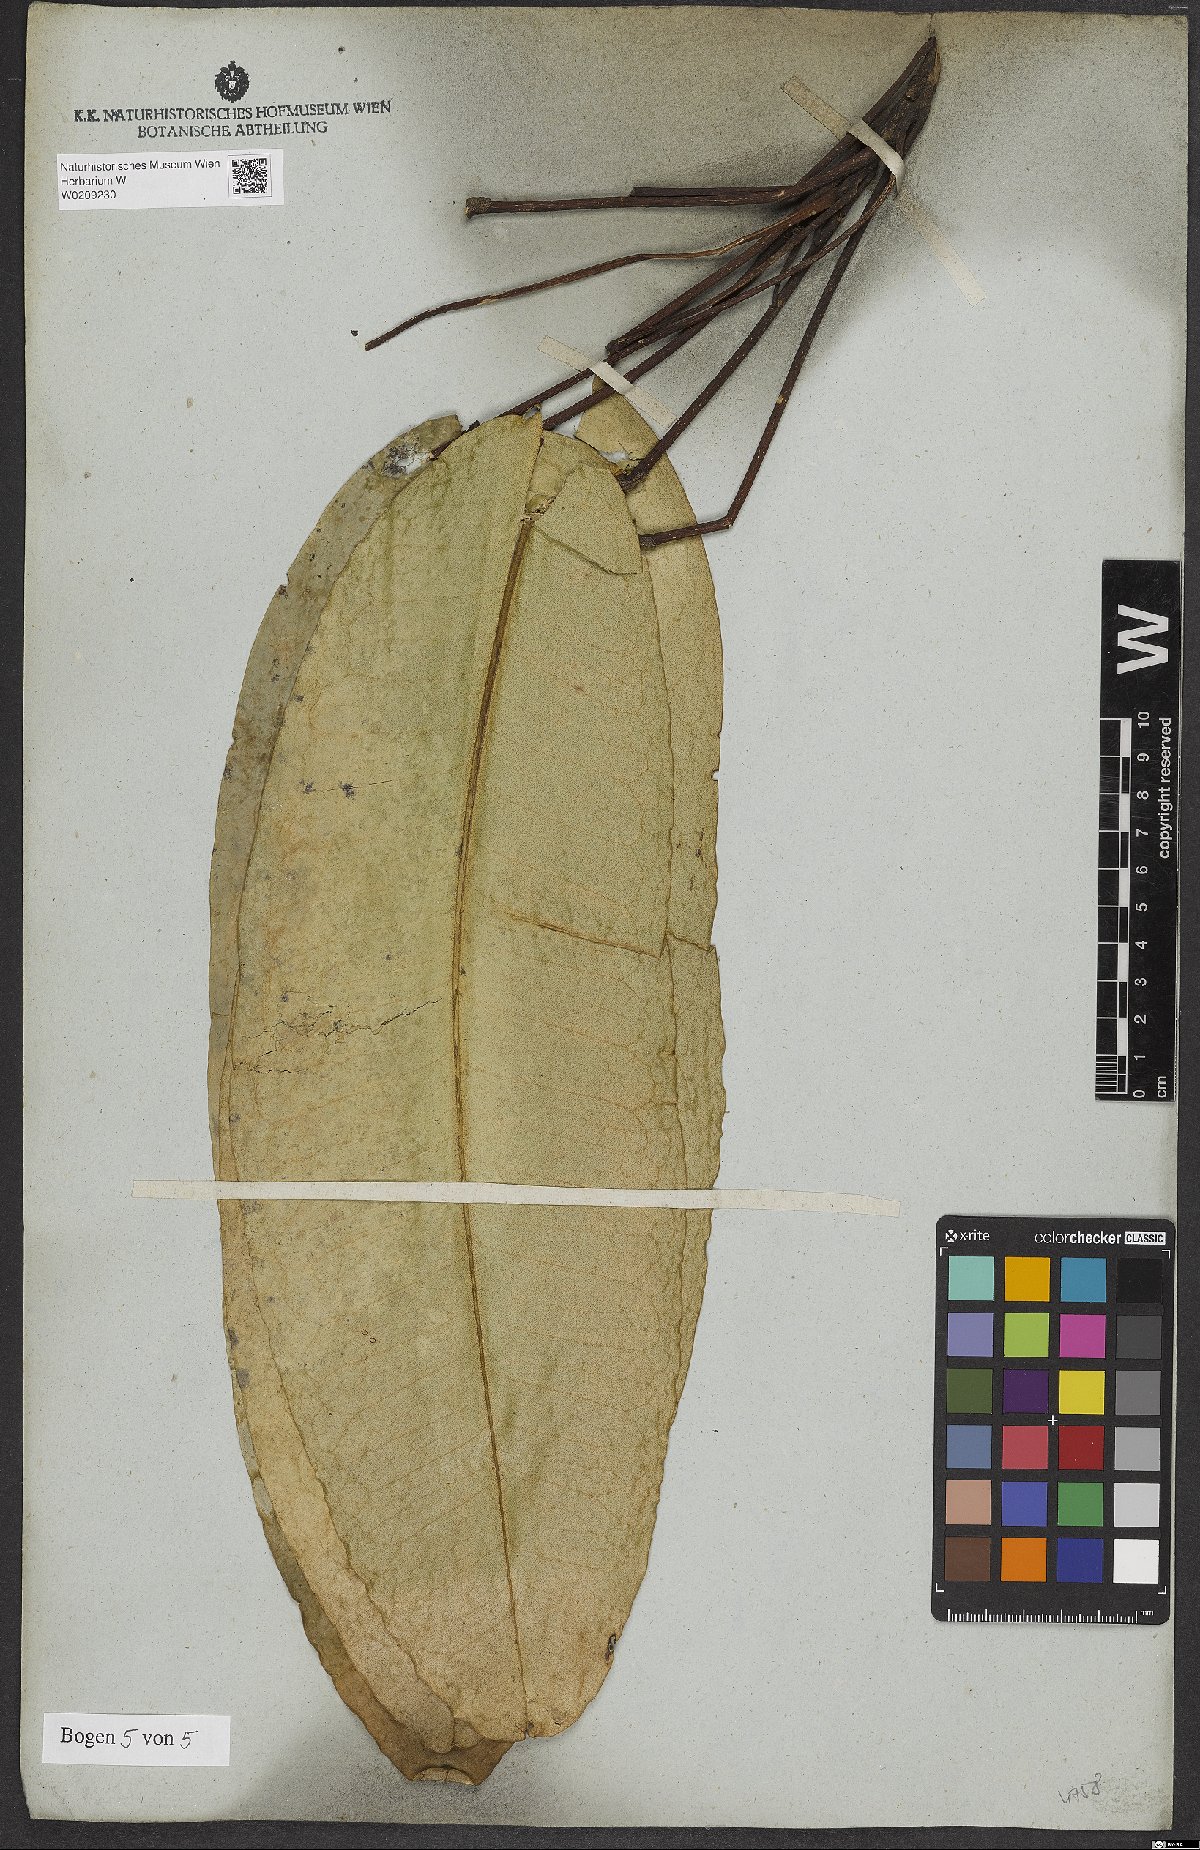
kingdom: Plantae
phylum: Tracheophyta
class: Magnoliopsida
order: Sapindales
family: Rutaceae
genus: Conchocarpus
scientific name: Conchocarpus macrophyllus
